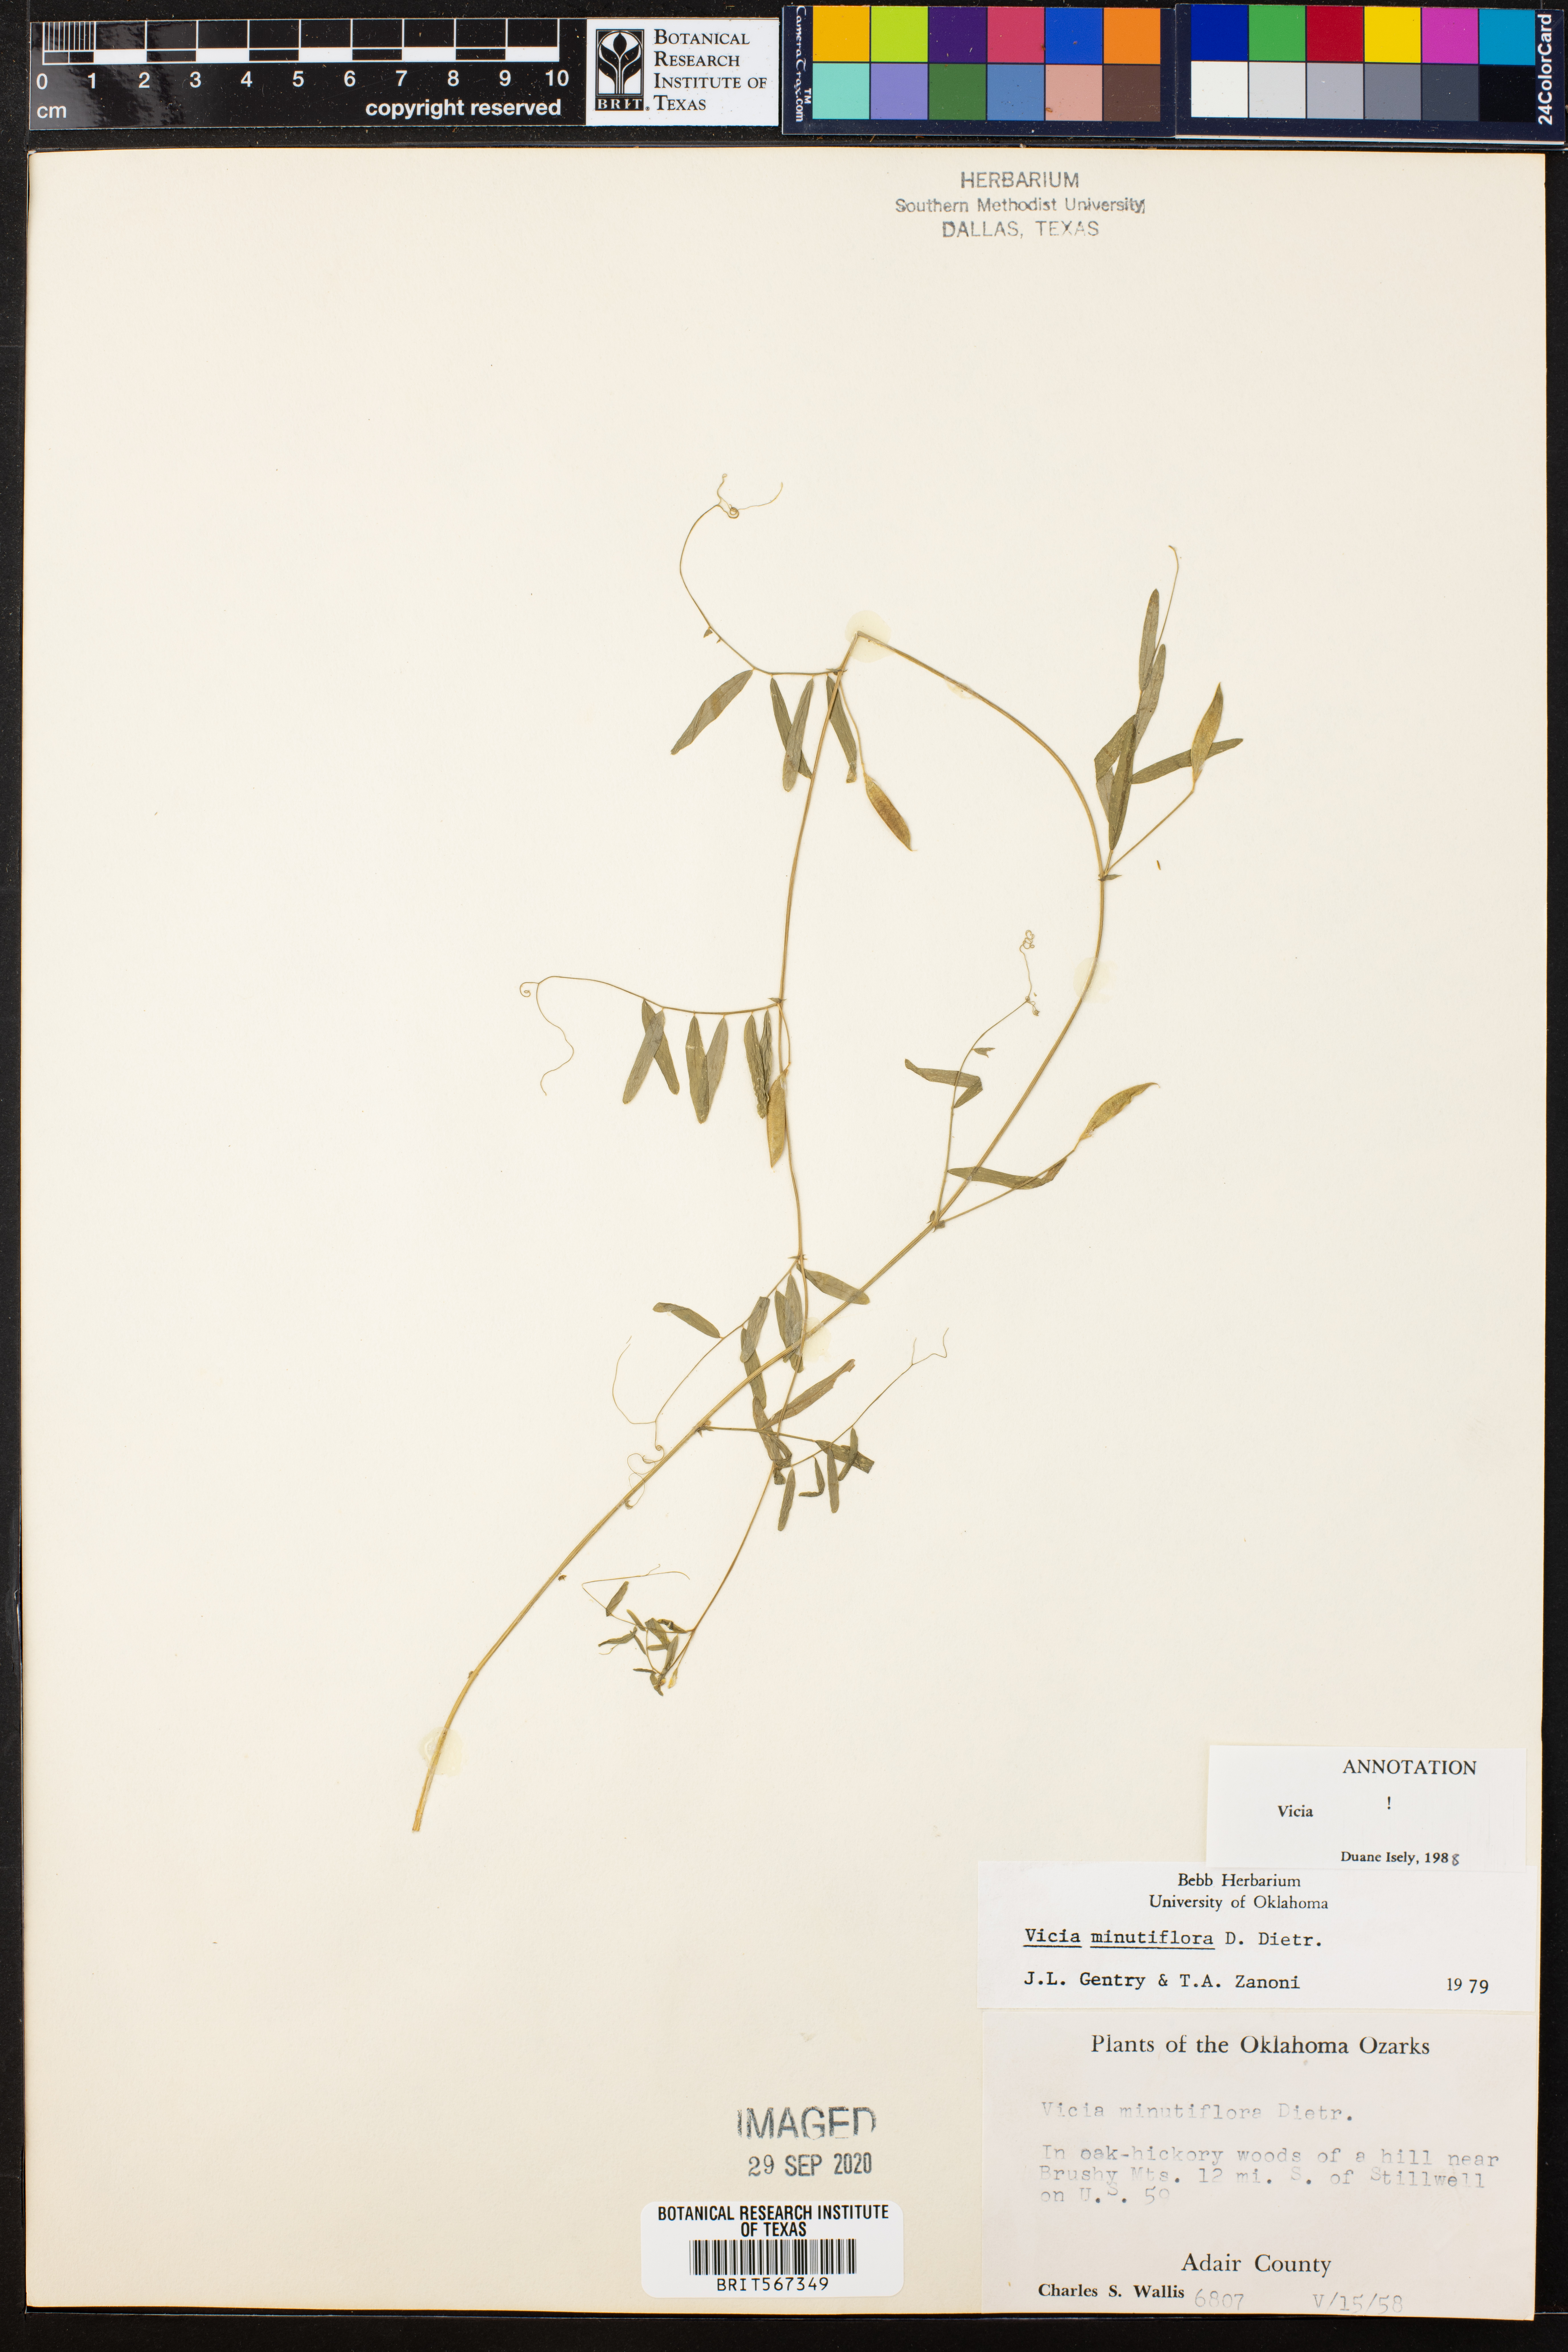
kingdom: Plantae
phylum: Tracheophyta
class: Magnoliopsida
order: Fabales
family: Fabaceae
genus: Vicia
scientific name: Vicia minutiflora
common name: Pygmy-flower vetch
